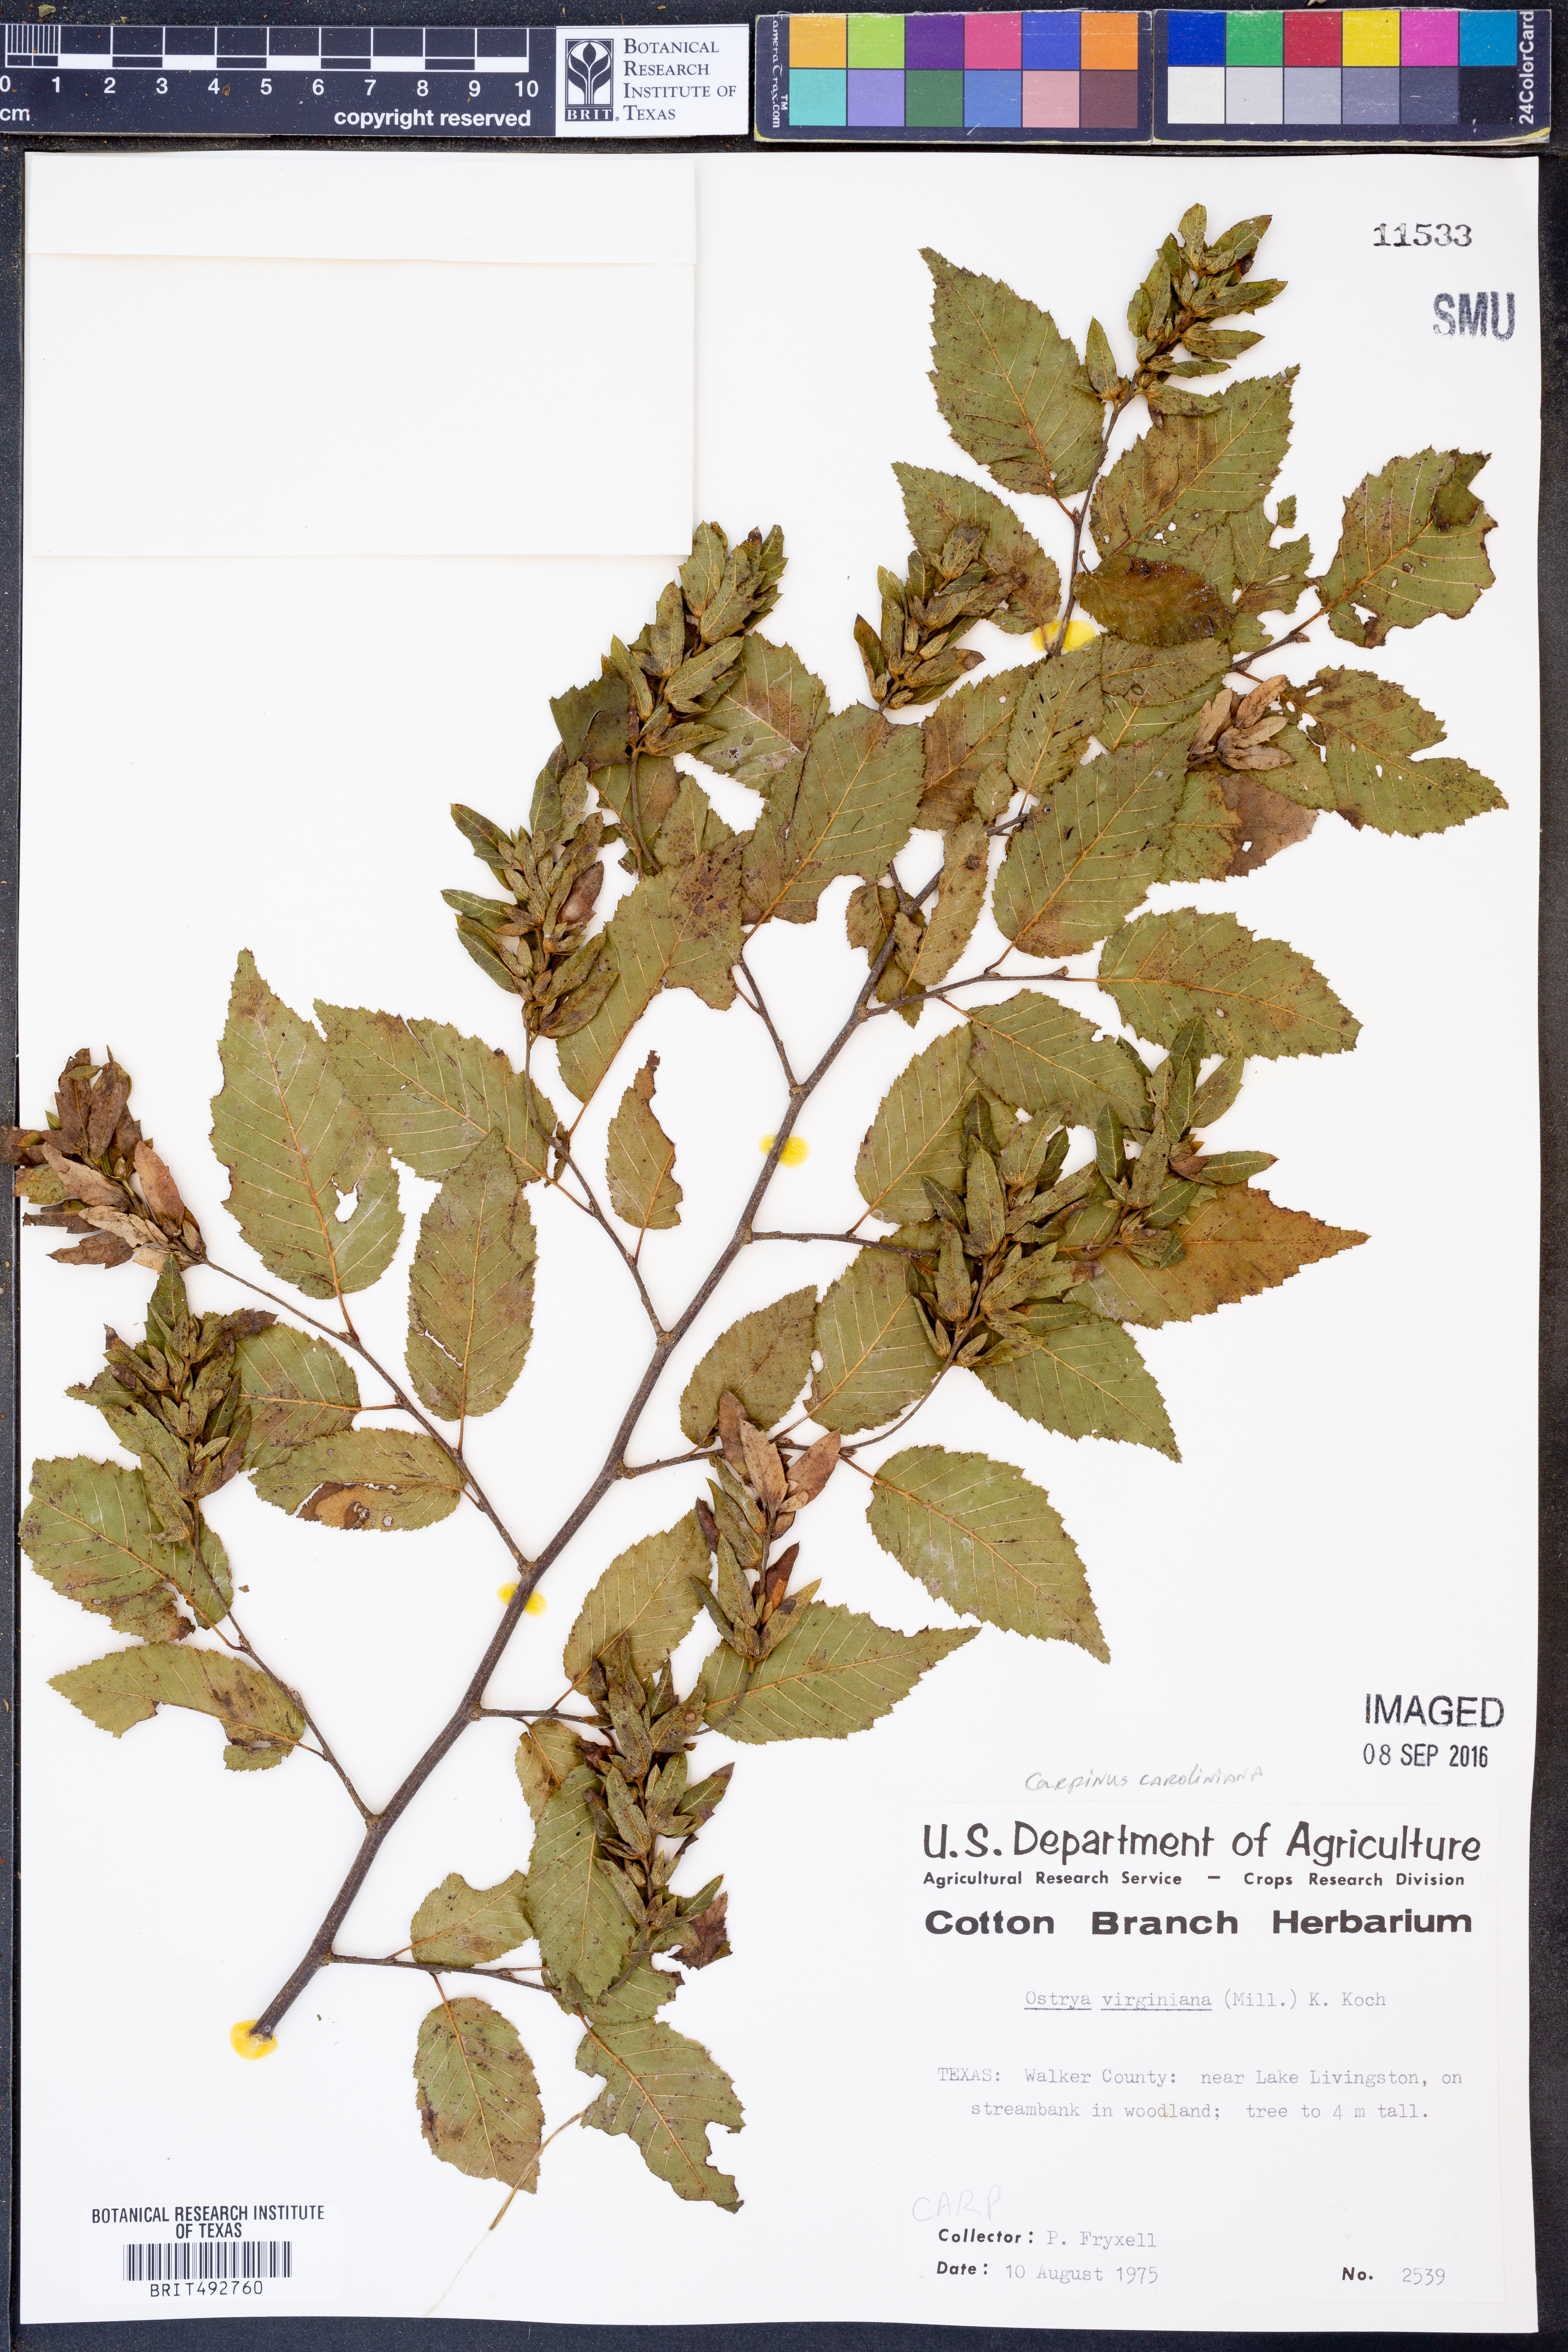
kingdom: Plantae
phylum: Tracheophyta
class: Magnoliopsida
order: Fagales
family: Betulaceae
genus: Carpinus
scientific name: Carpinus caroliniana
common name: American hornbeam
